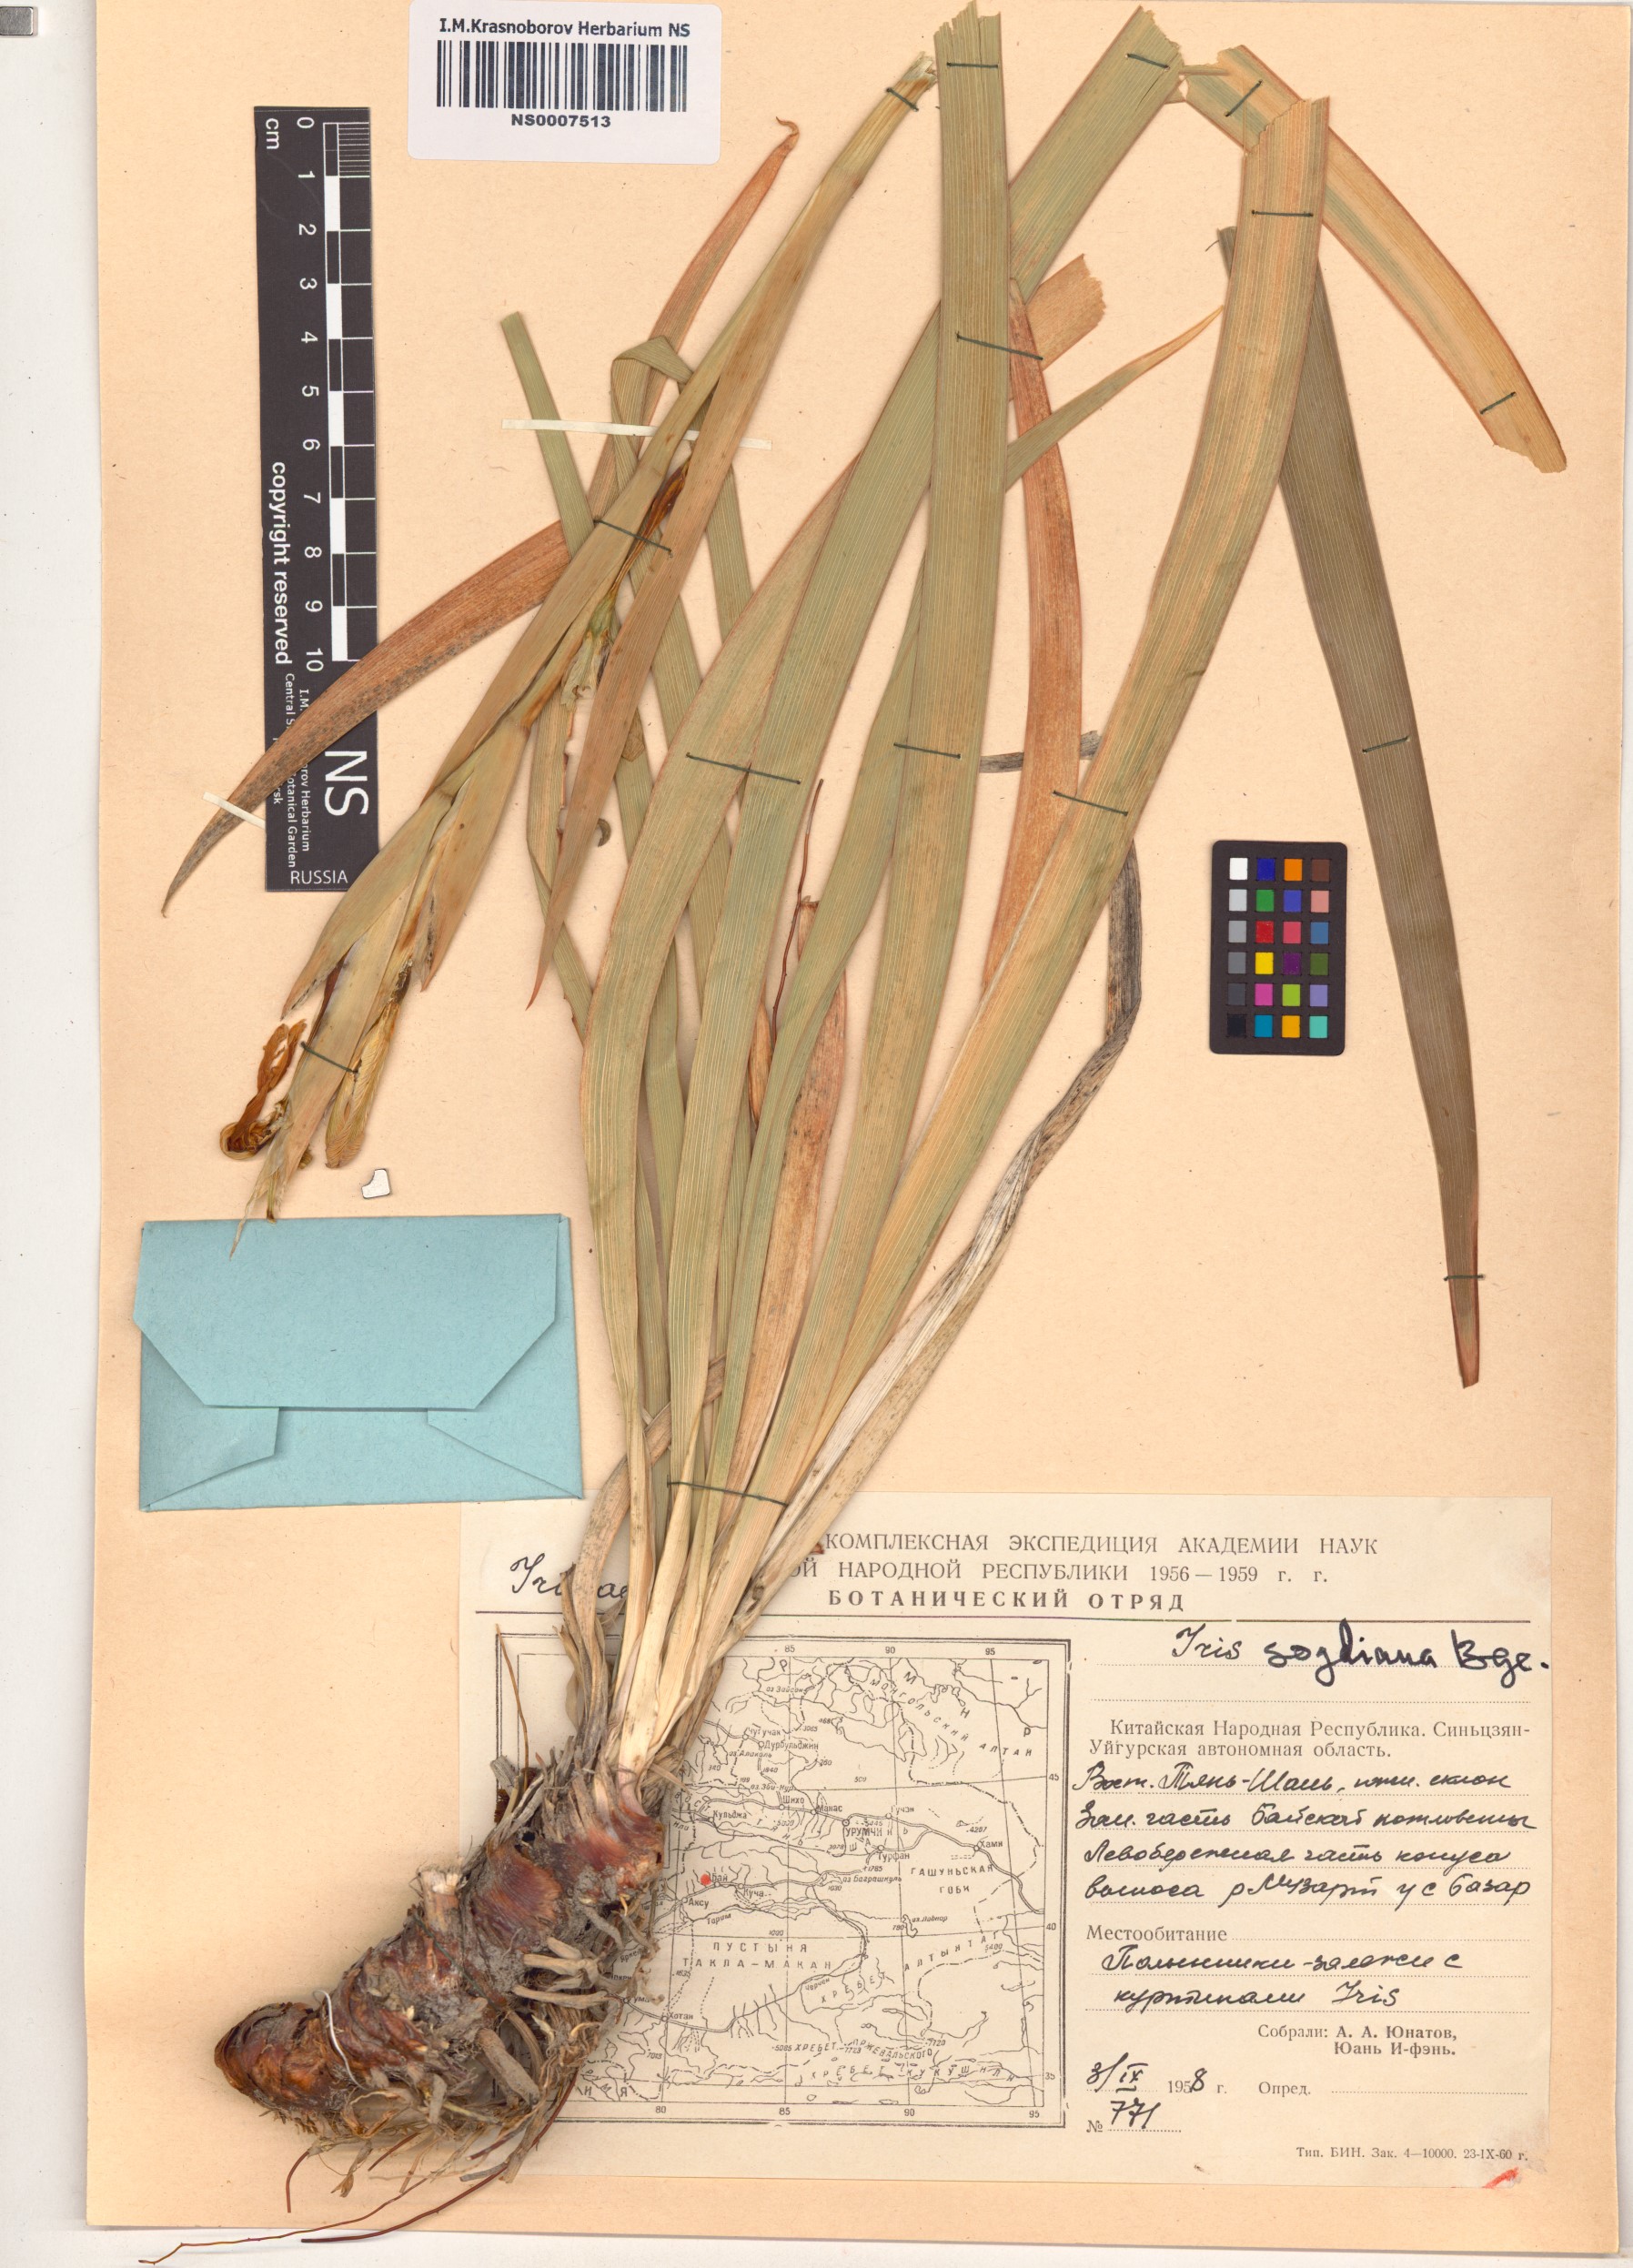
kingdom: Plantae
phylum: Tracheophyta
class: Liliopsida
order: Asparagales
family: Iridaceae
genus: Iris
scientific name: Iris halophila
